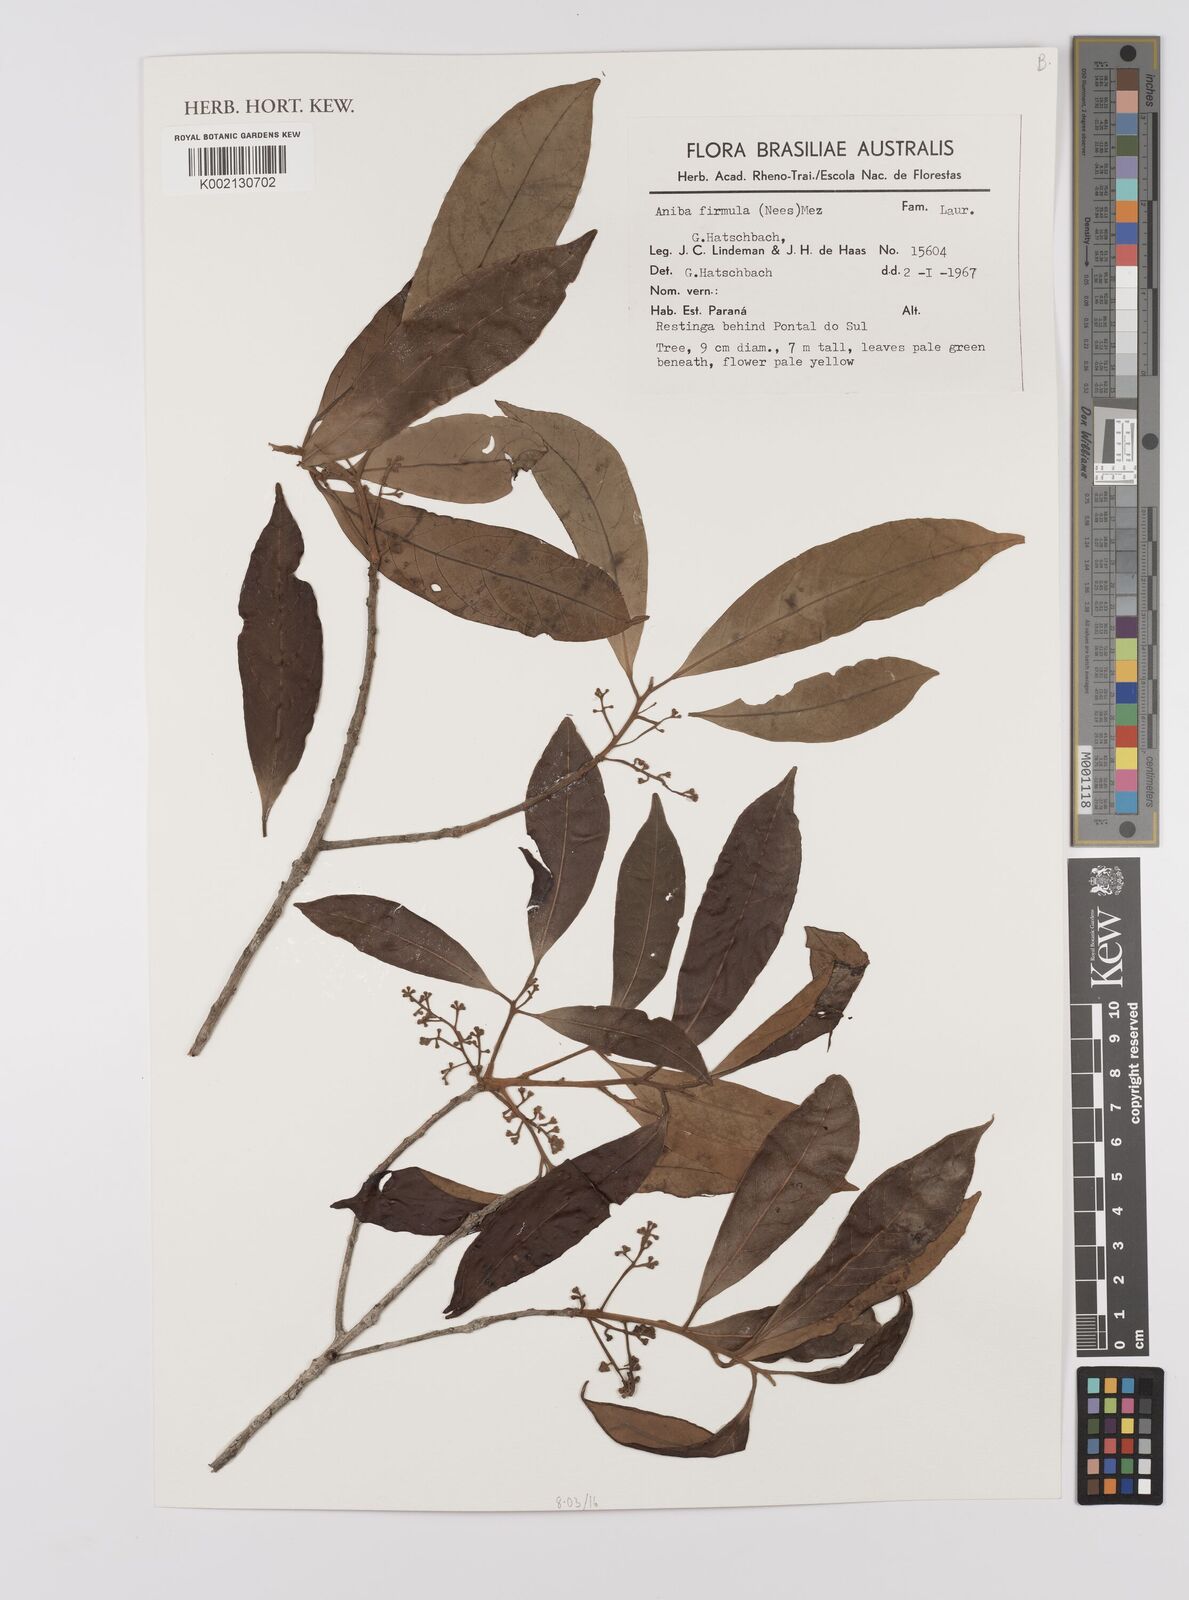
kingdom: Plantae
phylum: Tracheophyta
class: Magnoliopsida
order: Laurales
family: Lauraceae
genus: Aniba
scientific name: Aniba firmula
